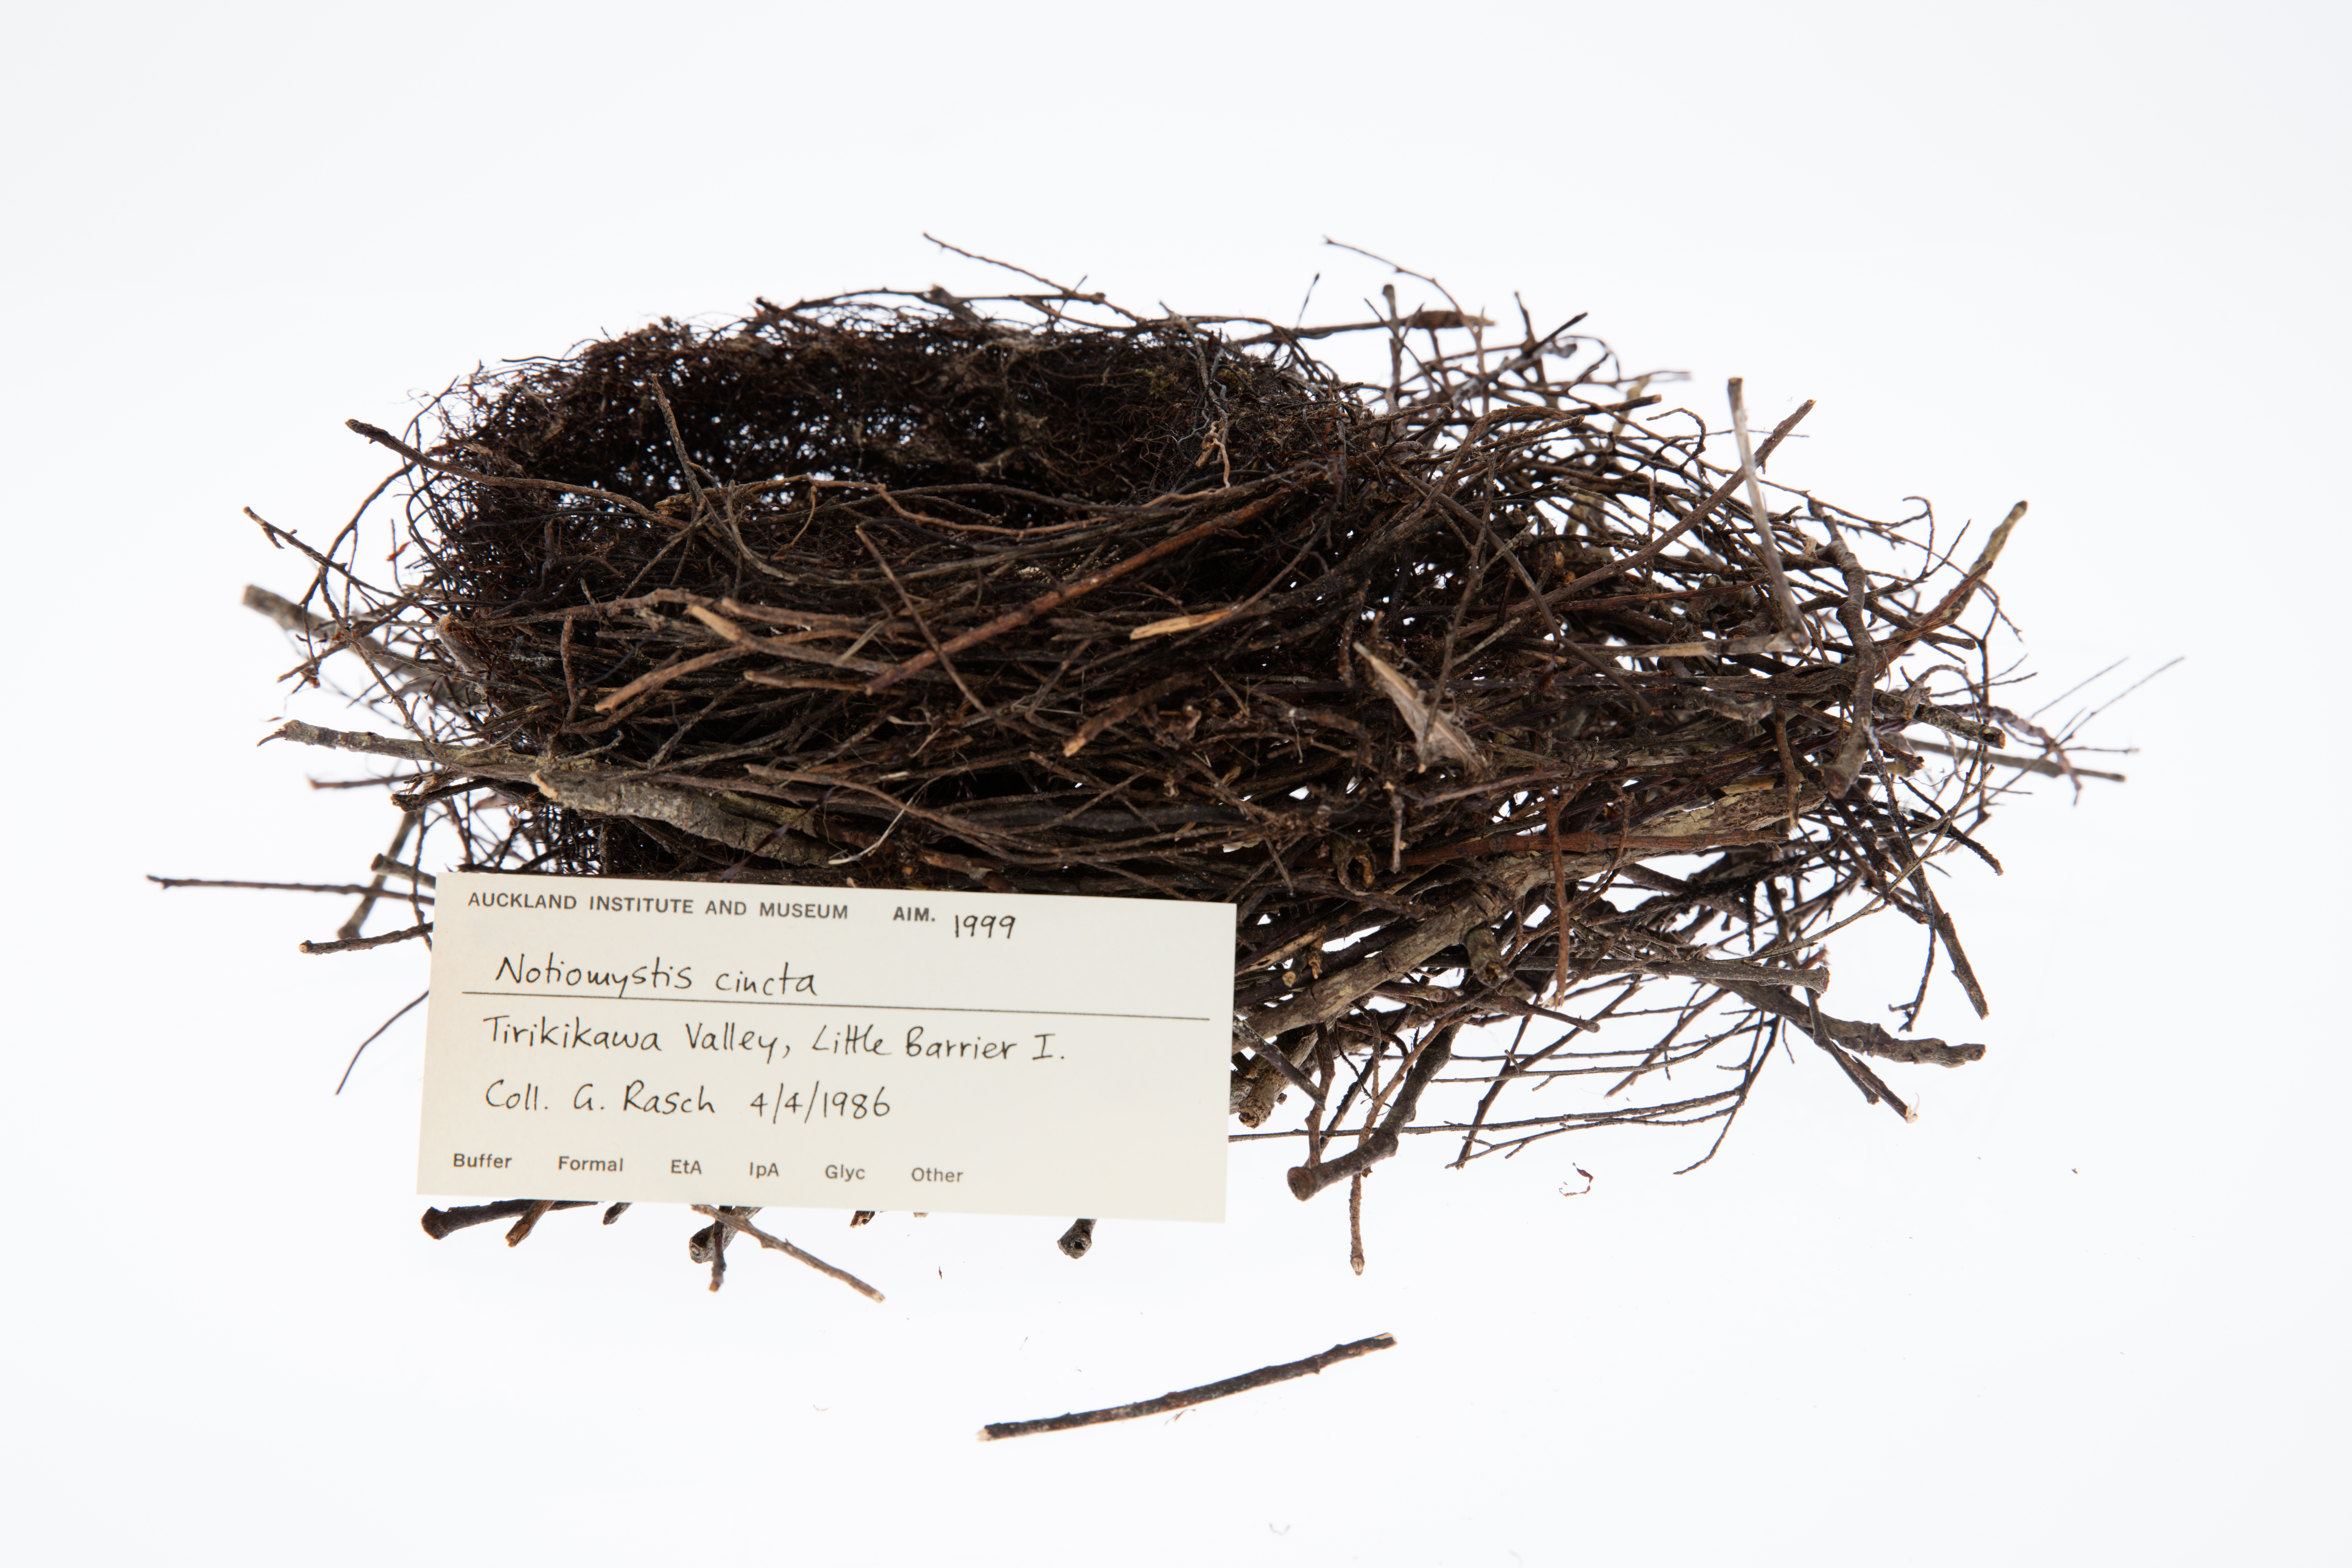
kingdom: Animalia
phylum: Chordata
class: Aves
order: Passeriformes
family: Notiomystidae
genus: Notiomystis
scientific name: Notiomystis cincta
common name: Stitchbird
